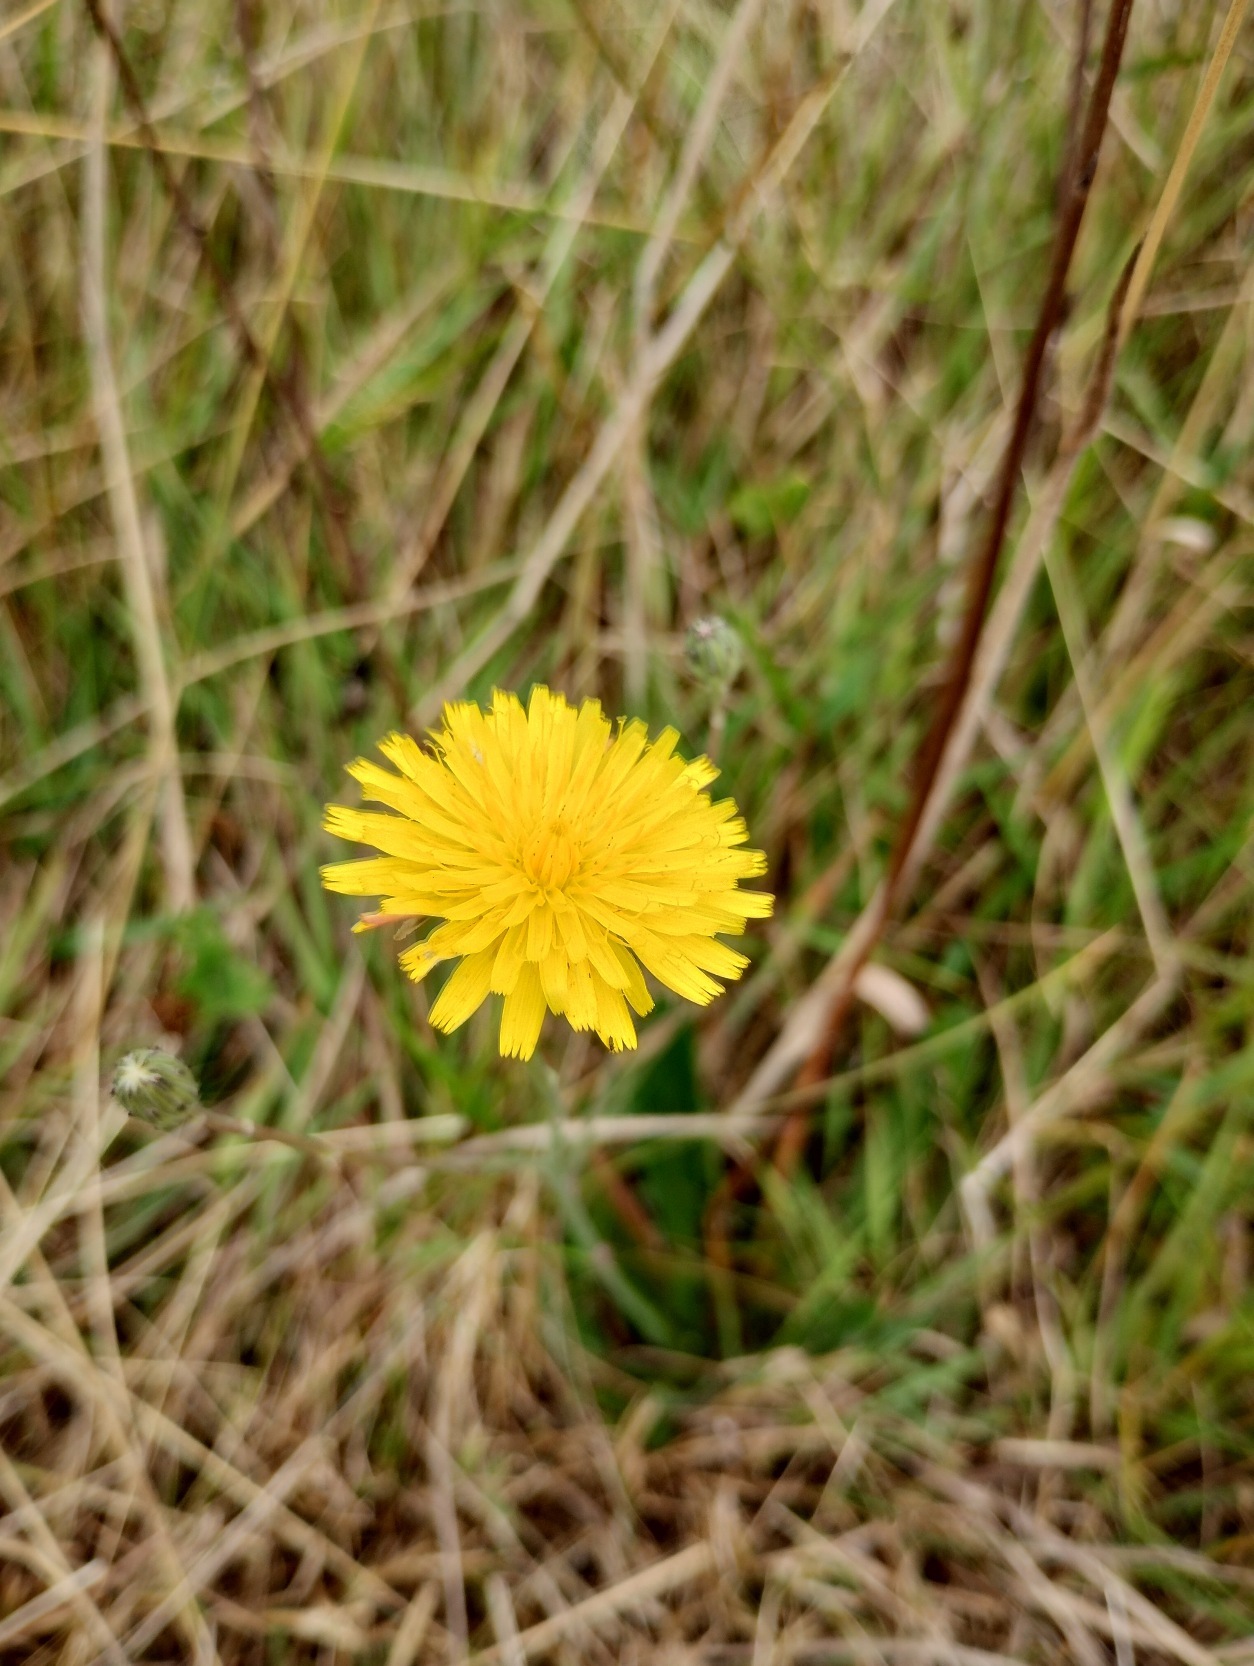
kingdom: Plantae
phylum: Tracheophyta
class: Magnoliopsida
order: Asterales
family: Asteraceae
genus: Hypochaeris
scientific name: Hypochaeris radicata
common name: Almindelig kongepen
